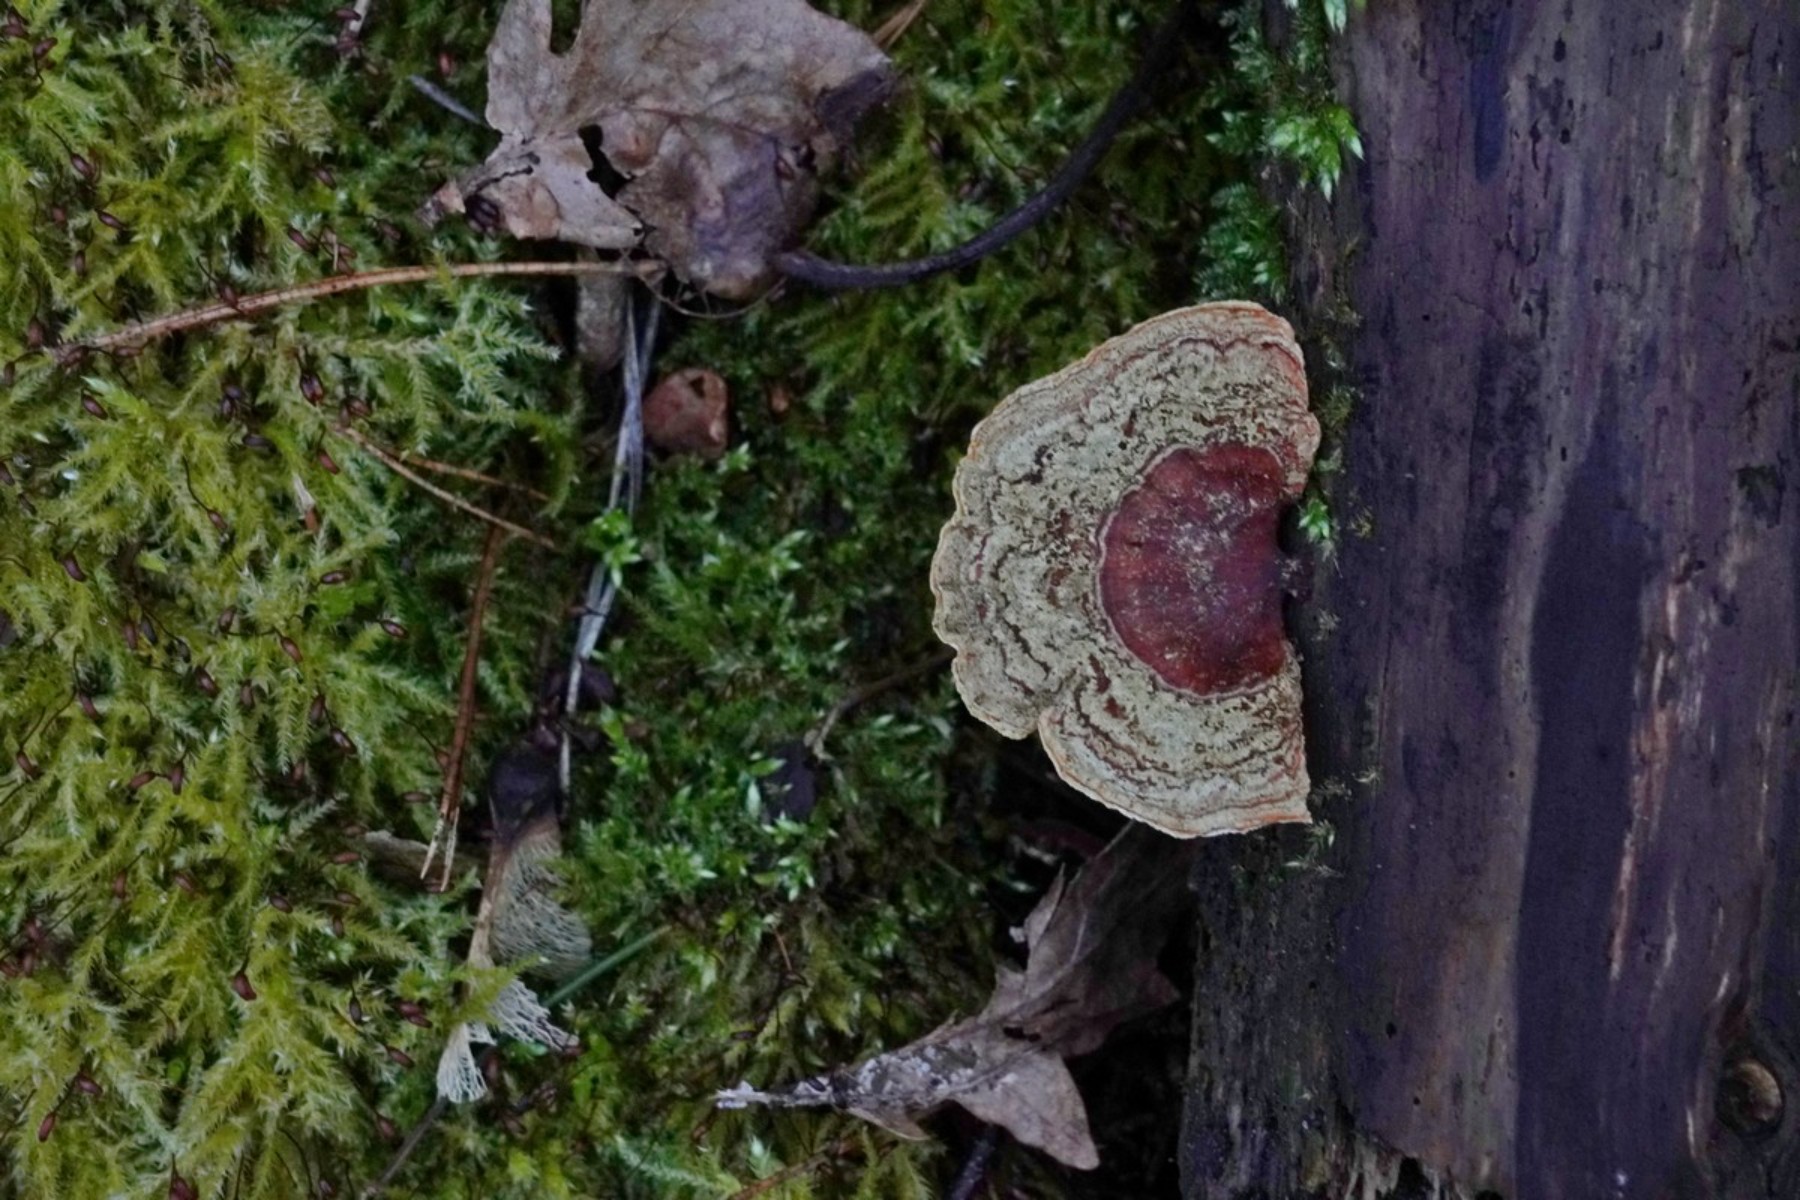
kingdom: Fungi
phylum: Basidiomycota
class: Agaricomycetes
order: Russulales
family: Stereaceae
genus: Stereum
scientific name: Stereum subtomentosum
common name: smuk lædersvamp
